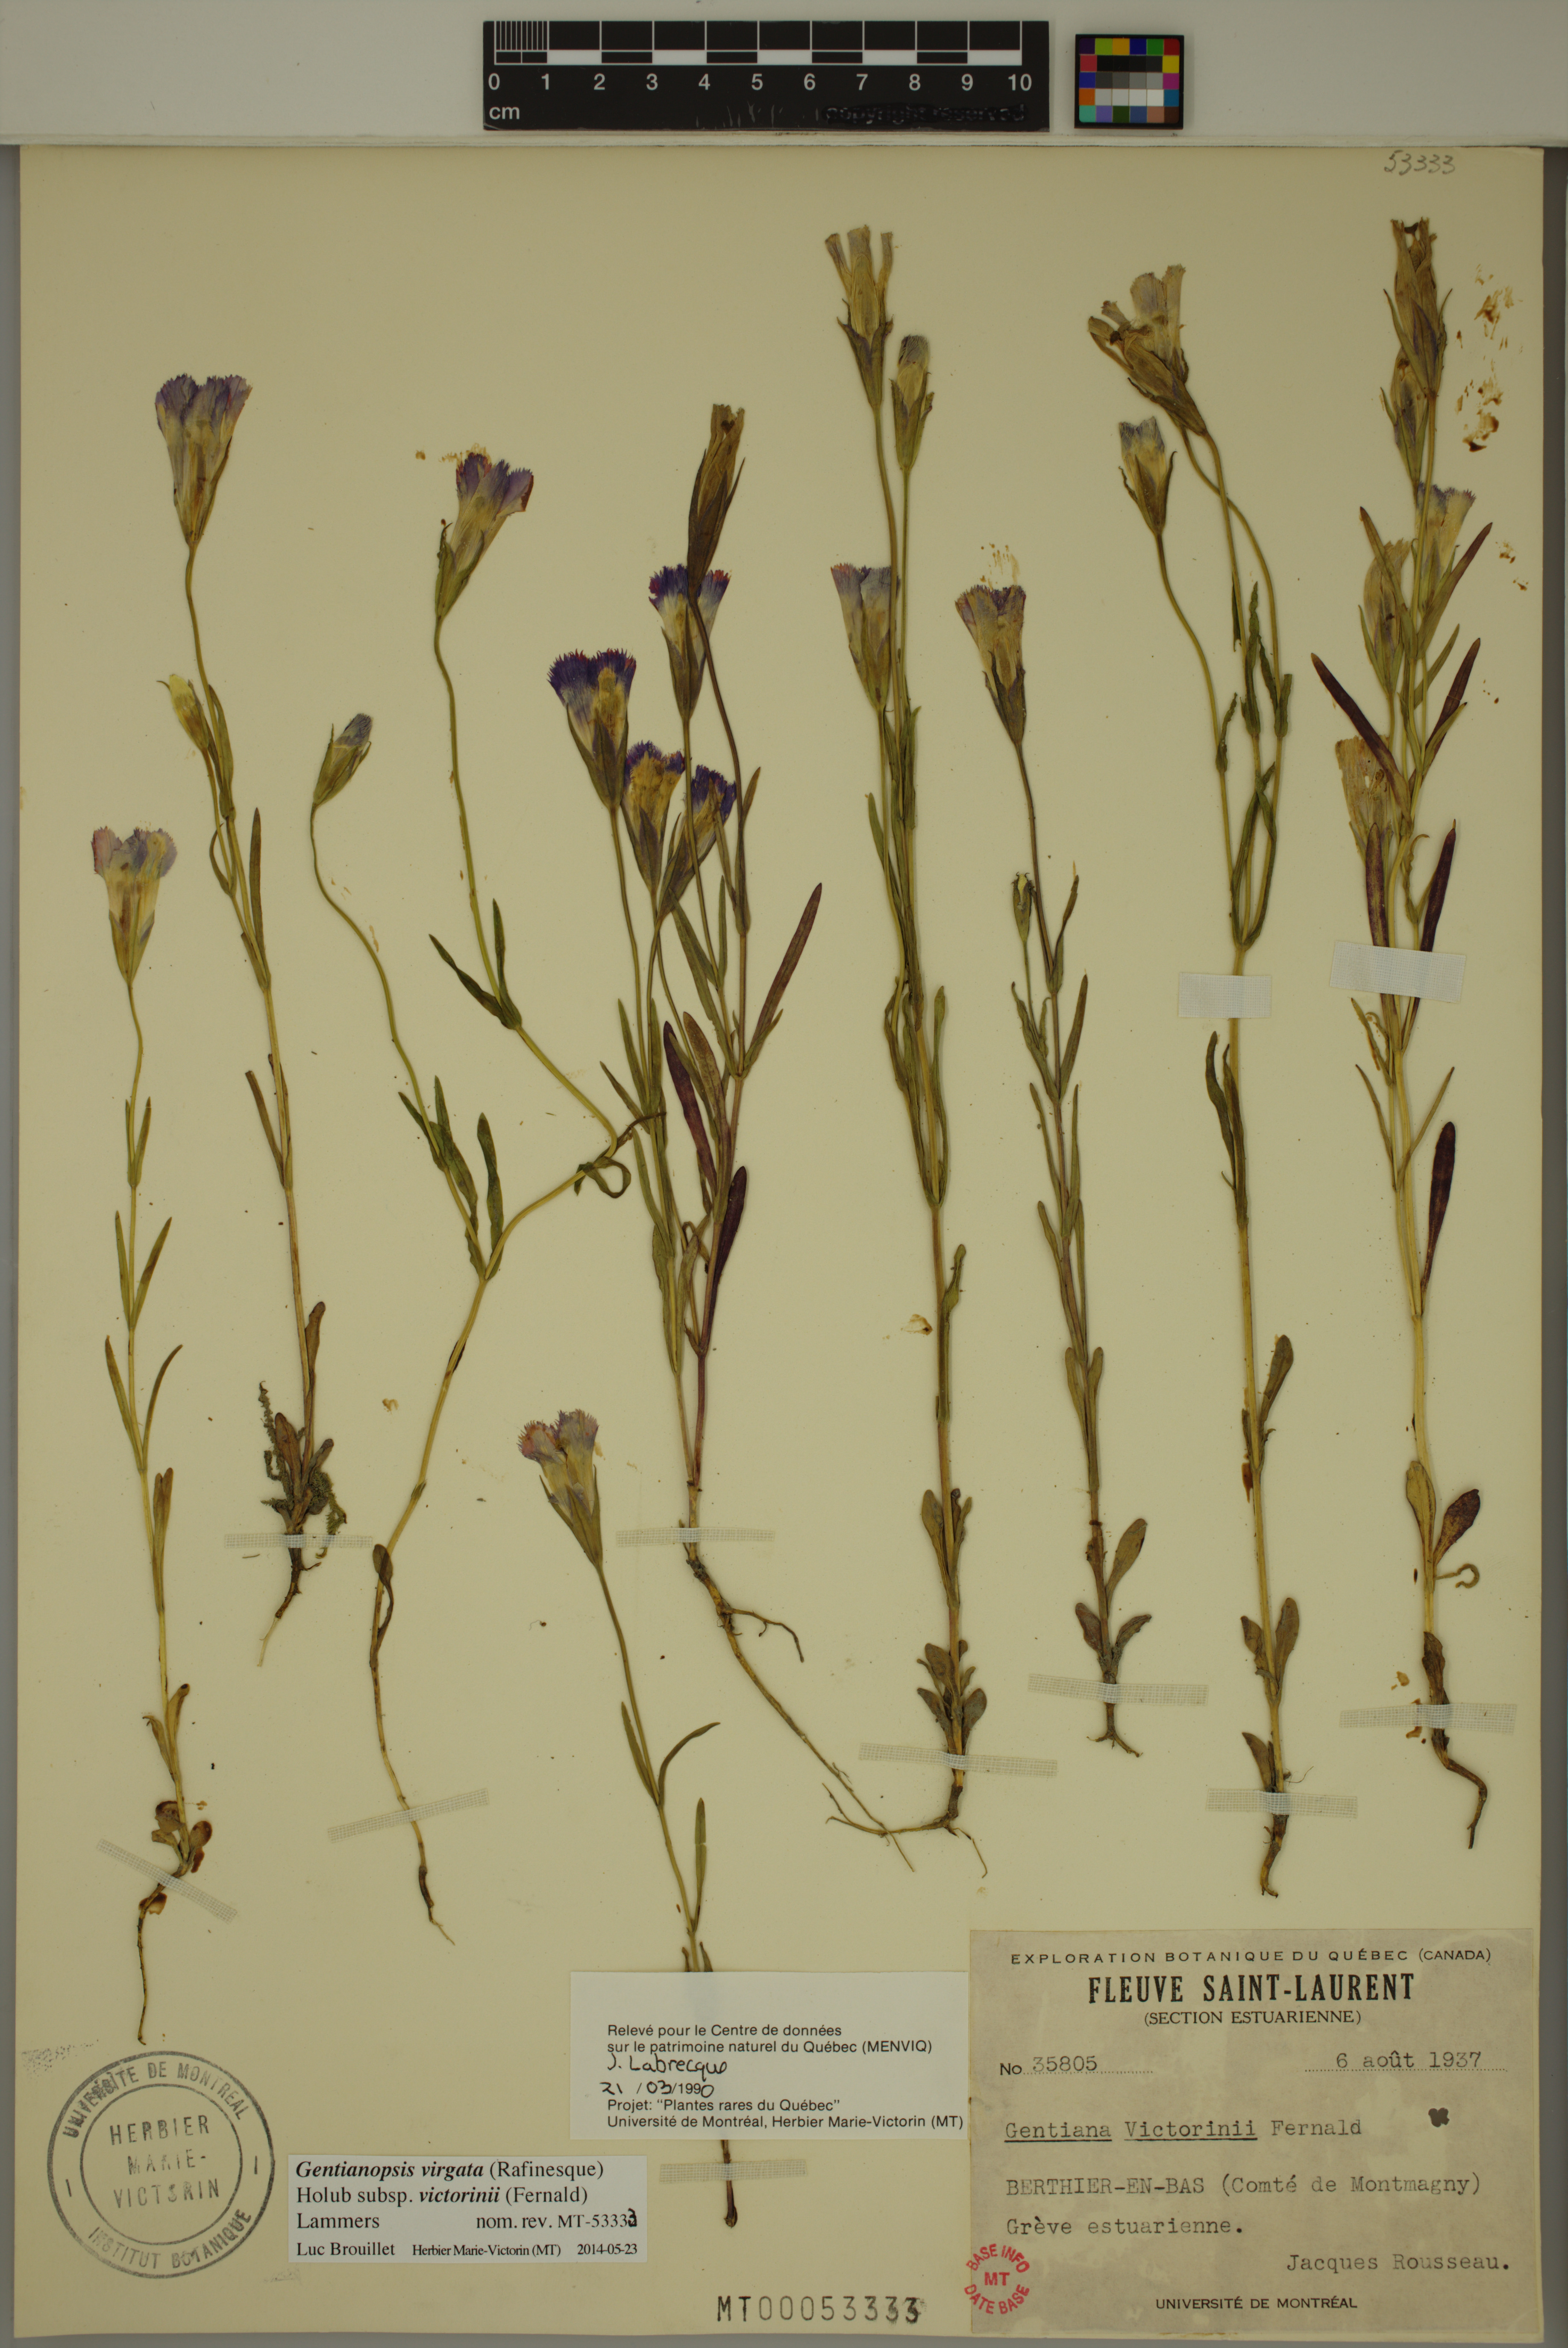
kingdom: Plantae
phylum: Tracheophyta
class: Magnoliopsida
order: Gentianales
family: Gentianaceae
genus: Gentianopsis
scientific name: Gentianopsis victorinii
